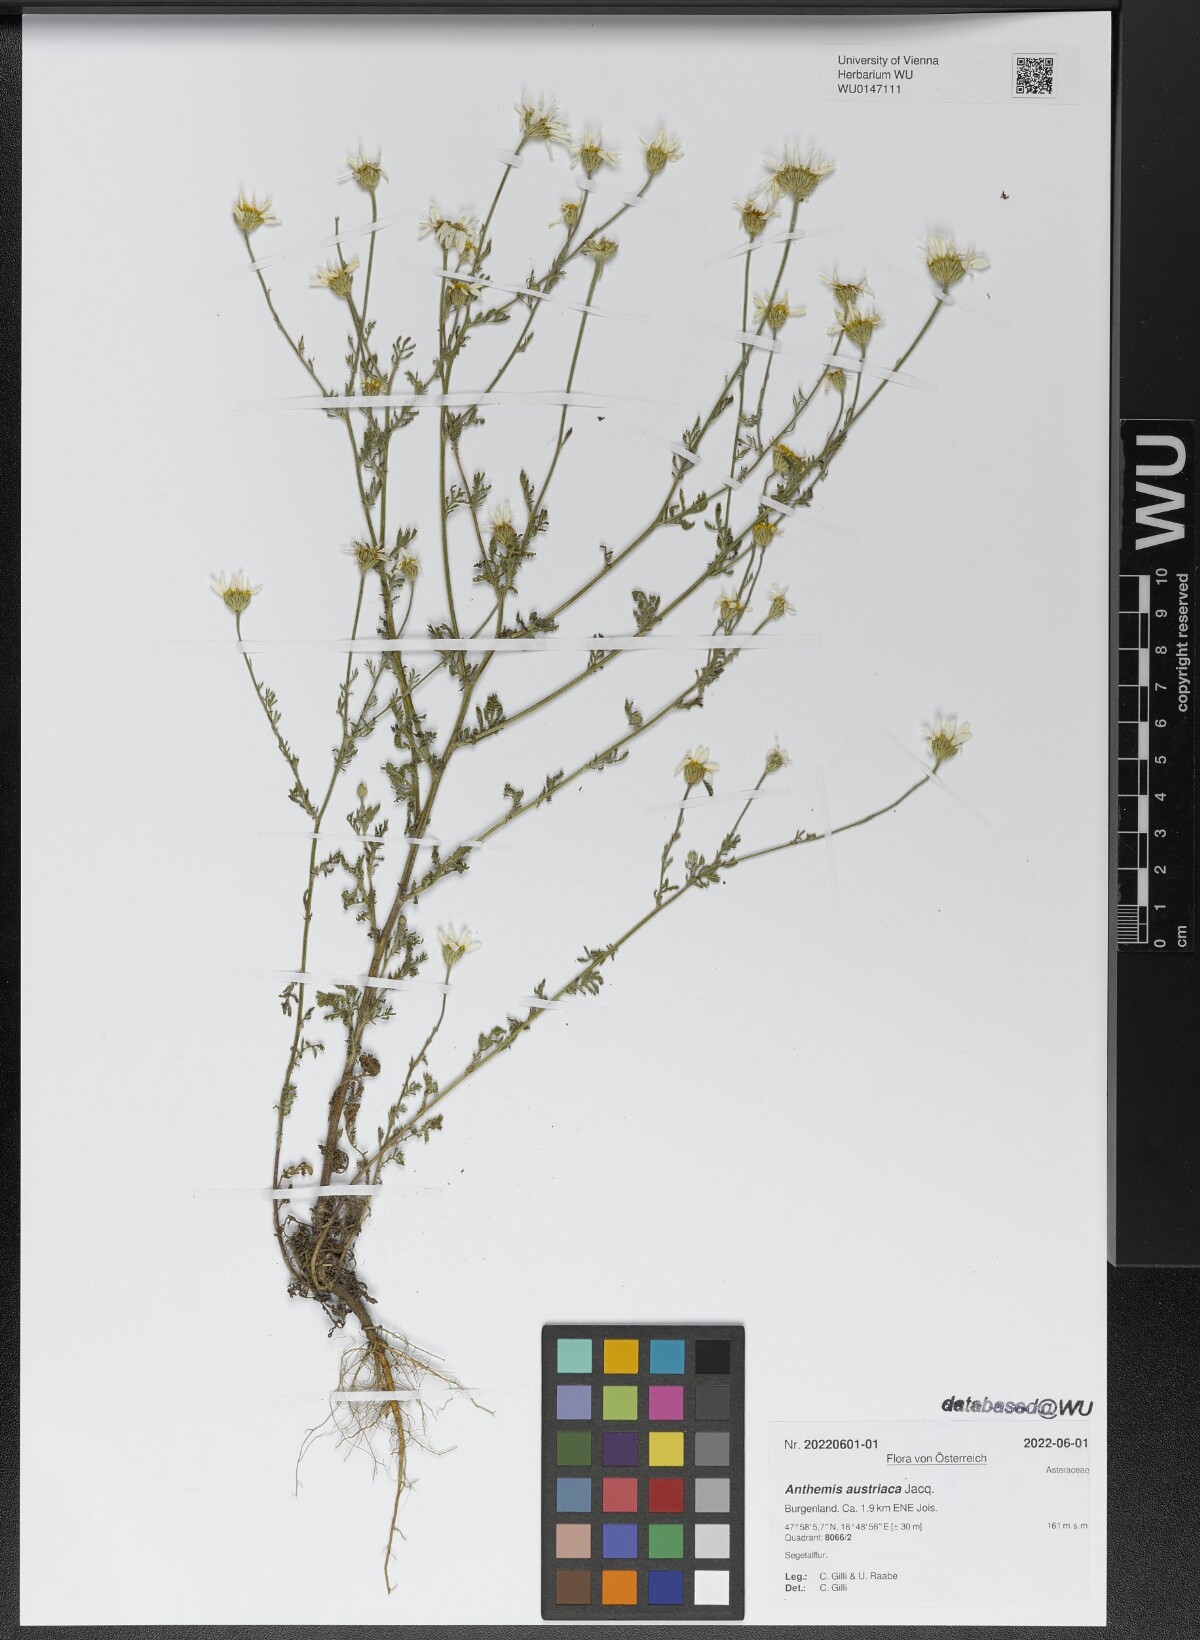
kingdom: Plantae
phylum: Tracheophyta
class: Magnoliopsida
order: Asterales
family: Asteraceae
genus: Cota
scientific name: Cota austriaca
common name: Austrian chamomile
